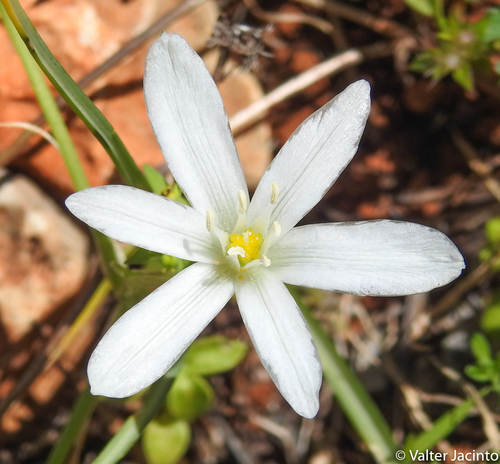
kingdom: Plantae
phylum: Tracheophyta
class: Liliopsida
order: Asparagales
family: Asparagaceae
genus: Ornithogalum
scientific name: Ornithogalum baeticum
